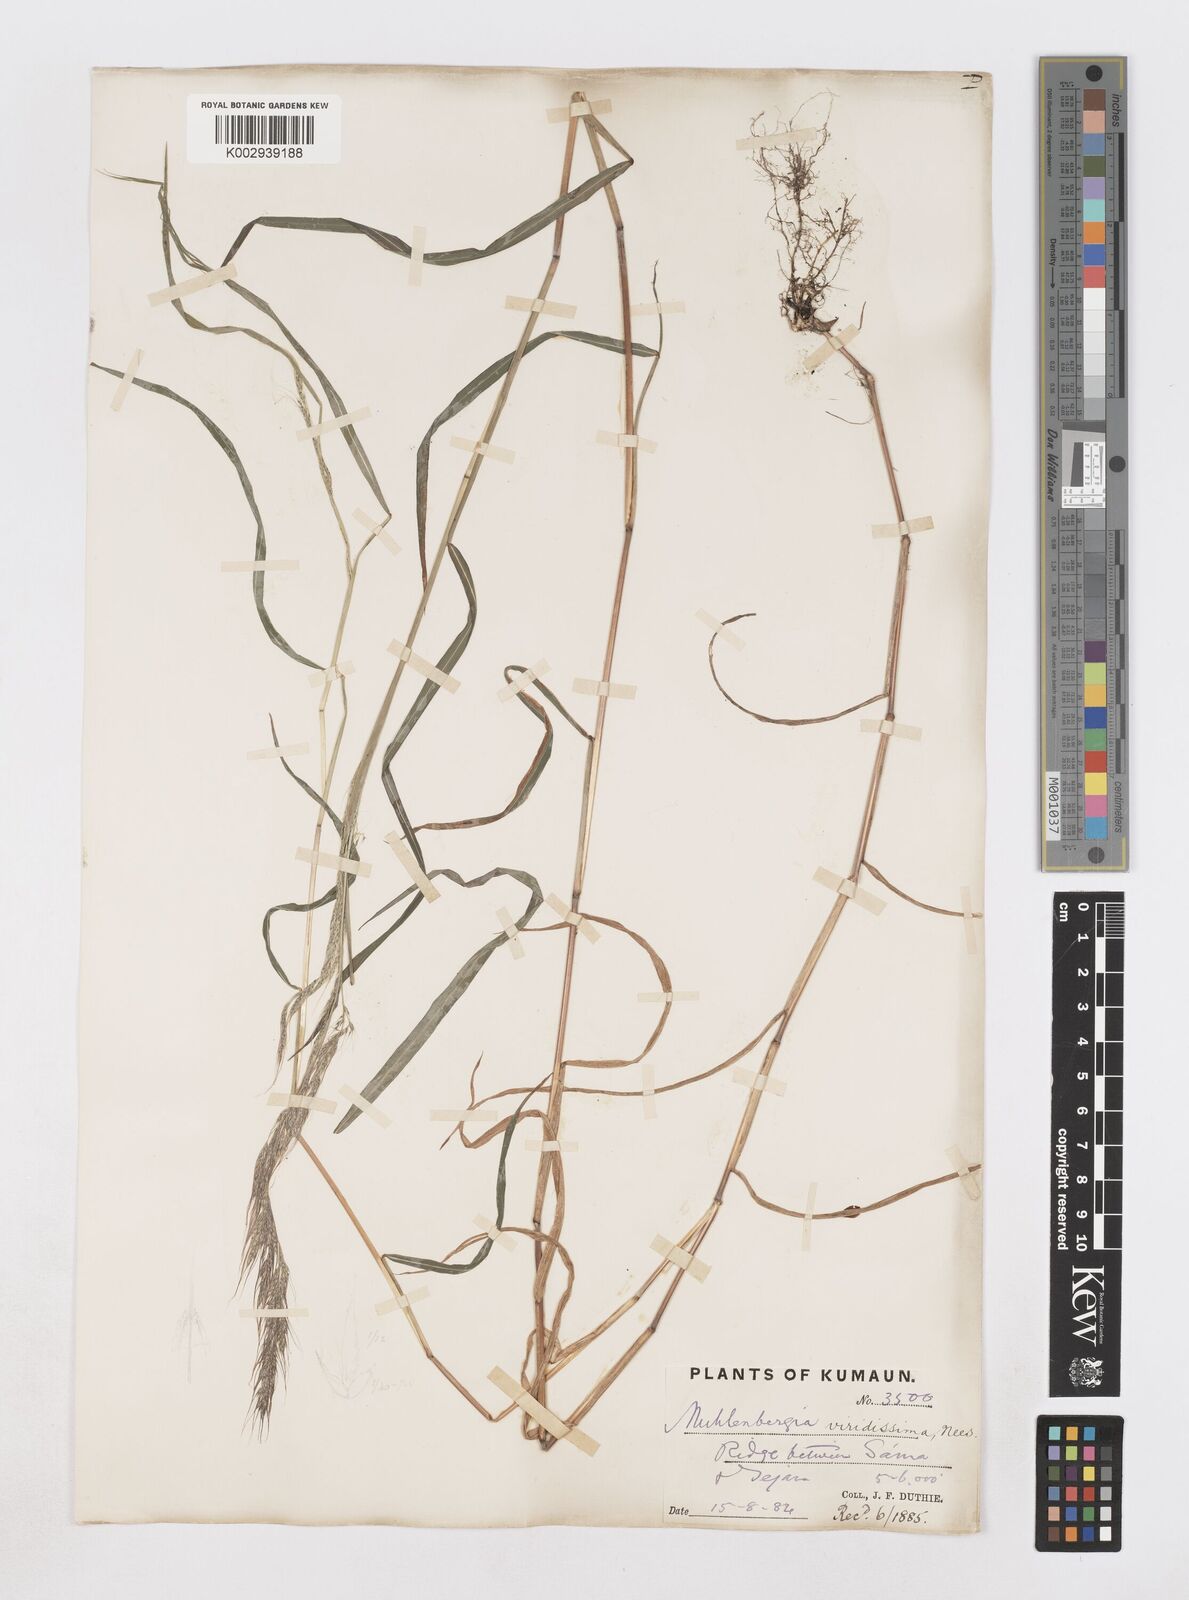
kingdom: Plantae
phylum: Tracheophyta
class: Liliopsida
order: Poales
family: Poaceae
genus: Muhlenbergia
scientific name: Muhlenbergia huegelii
